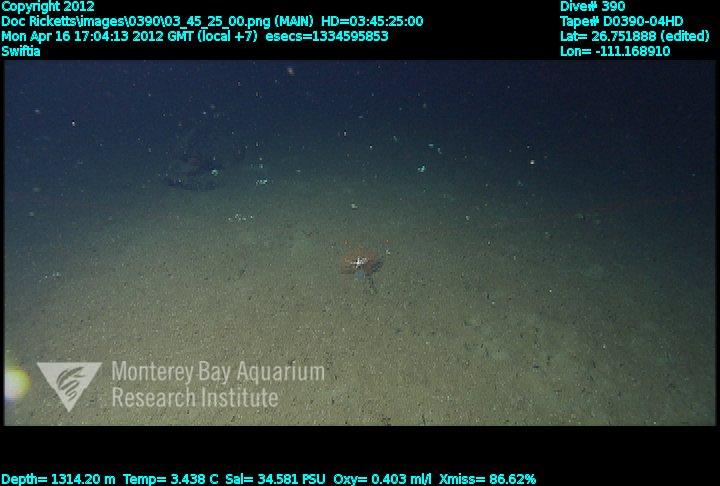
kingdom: Animalia
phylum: Cnidaria
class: Anthozoa
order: Malacalcyonacea
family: Plexauridae
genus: Swiftia
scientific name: Swiftia
